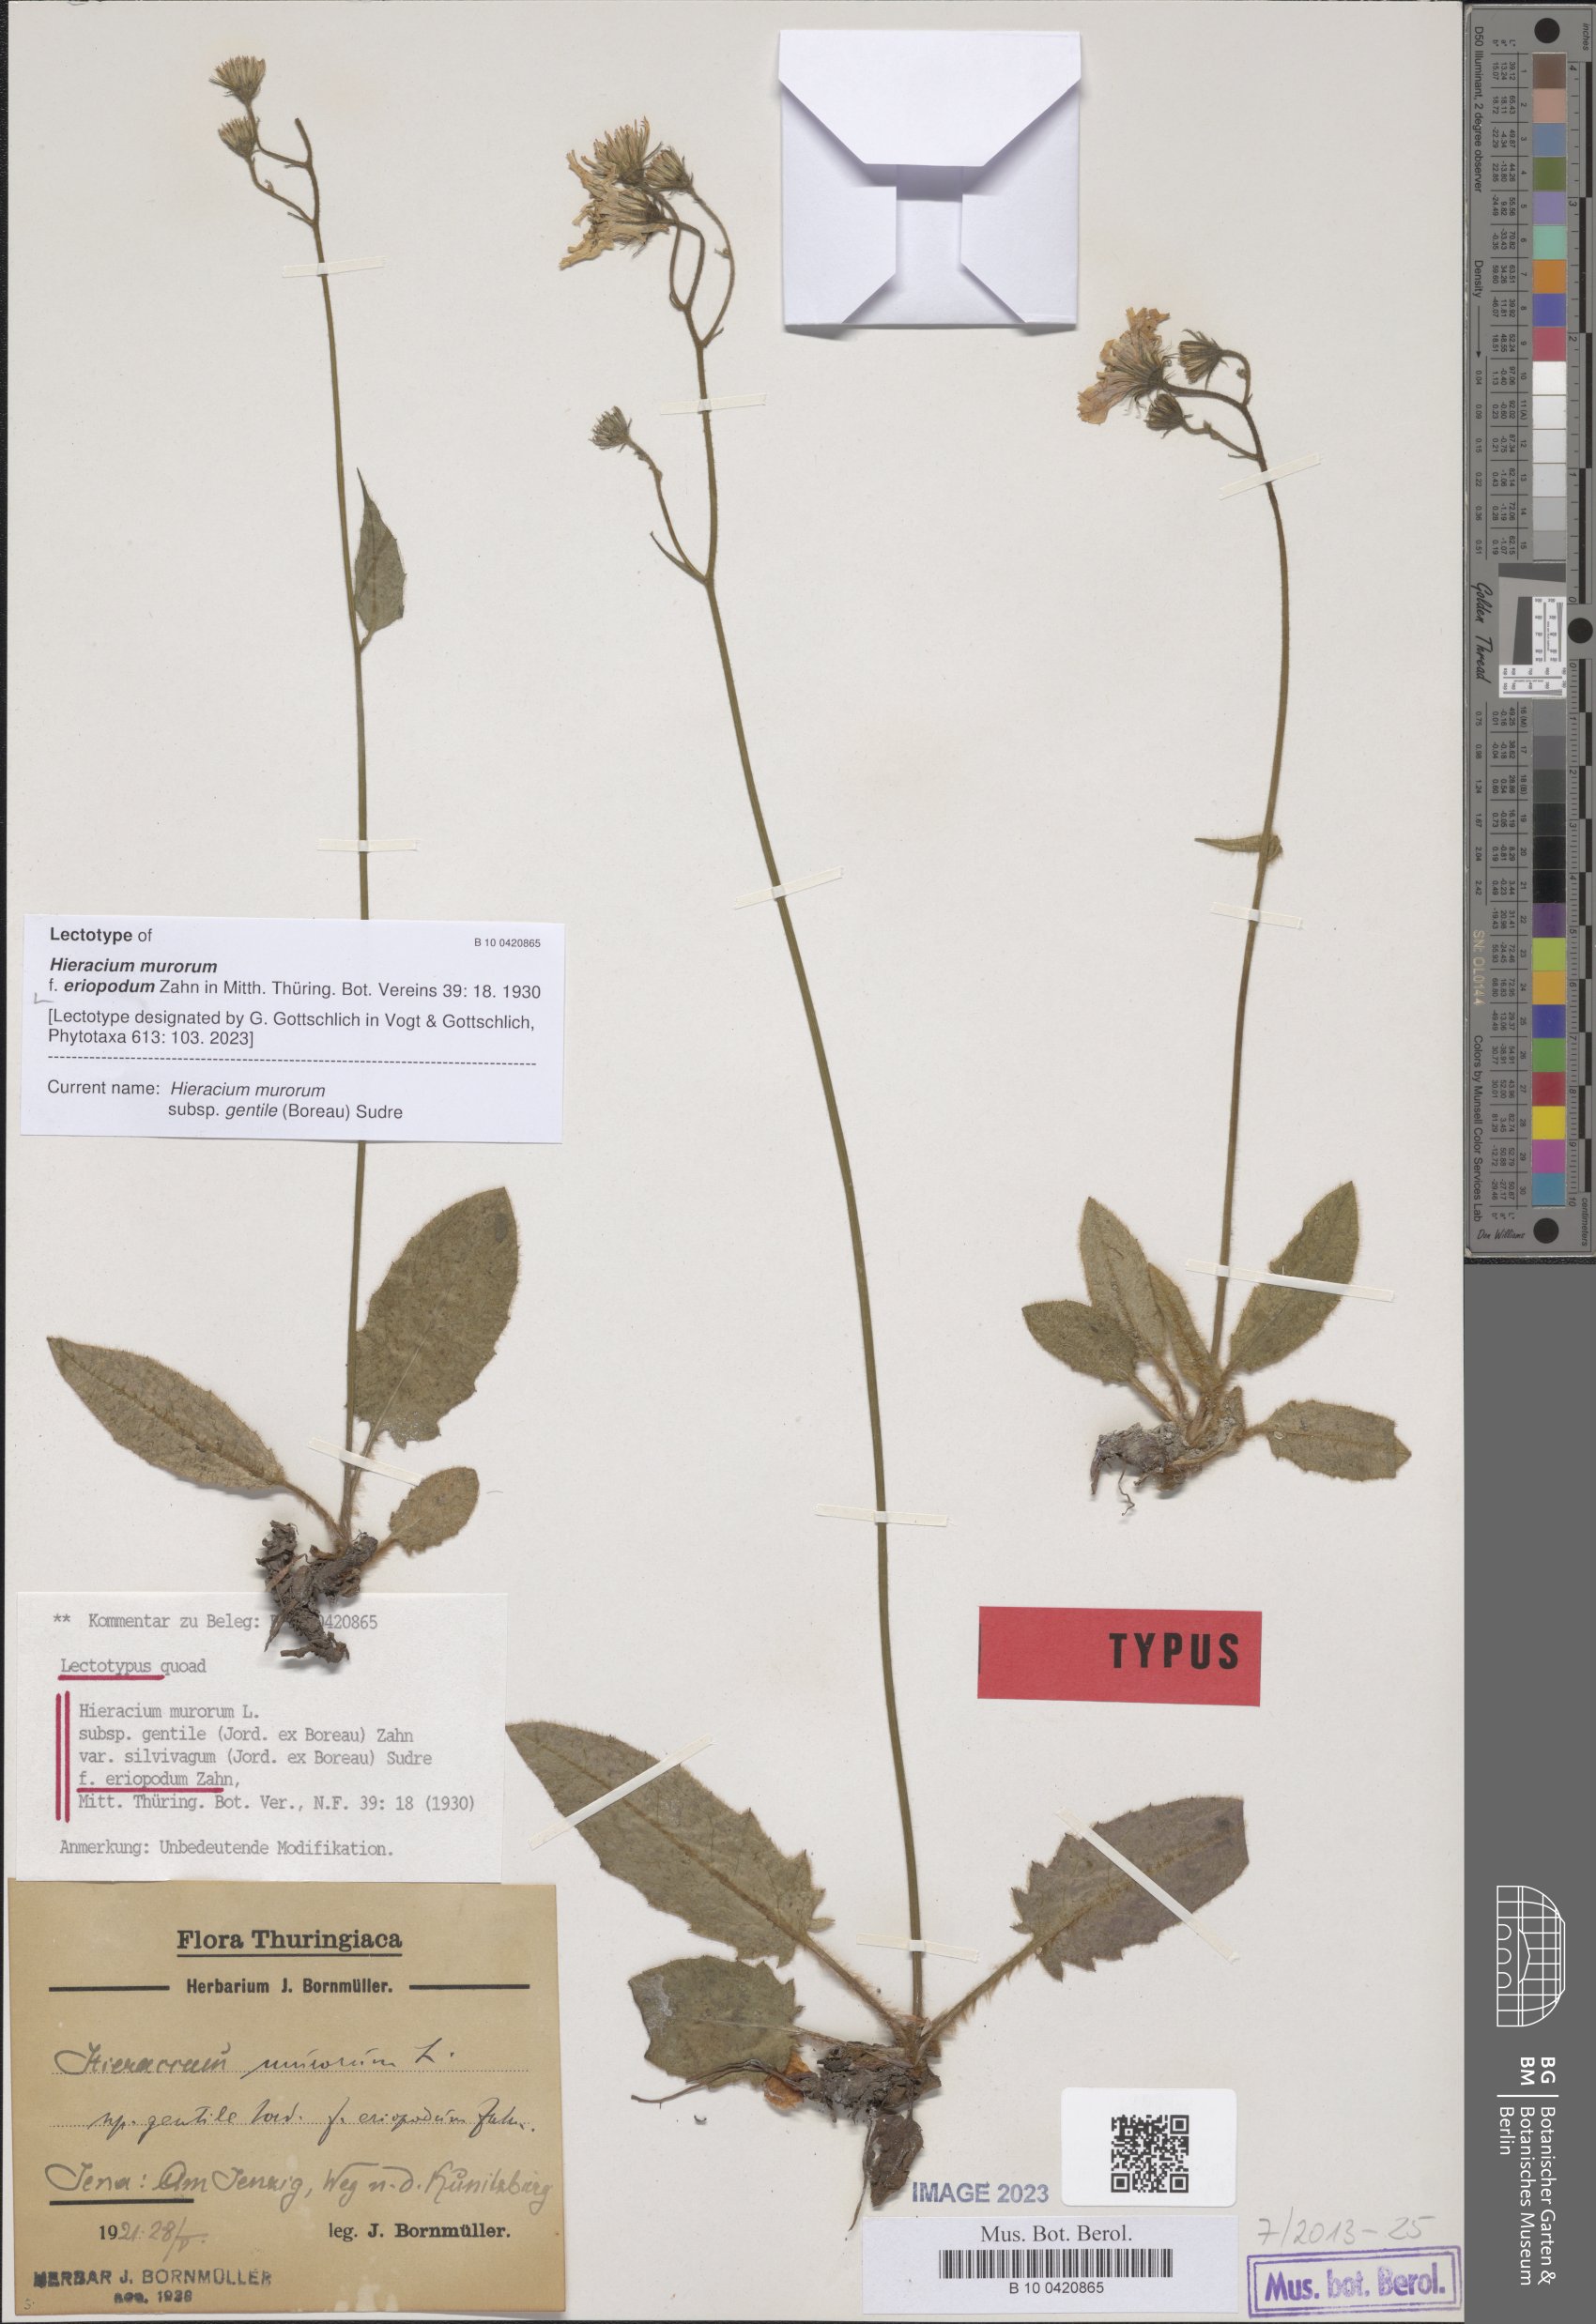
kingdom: Plantae
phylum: Tracheophyta
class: Magnoliopsida
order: Asterales
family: Asteraceae
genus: Hieracium
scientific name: Hieracium murorum
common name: Wall hawkweed
